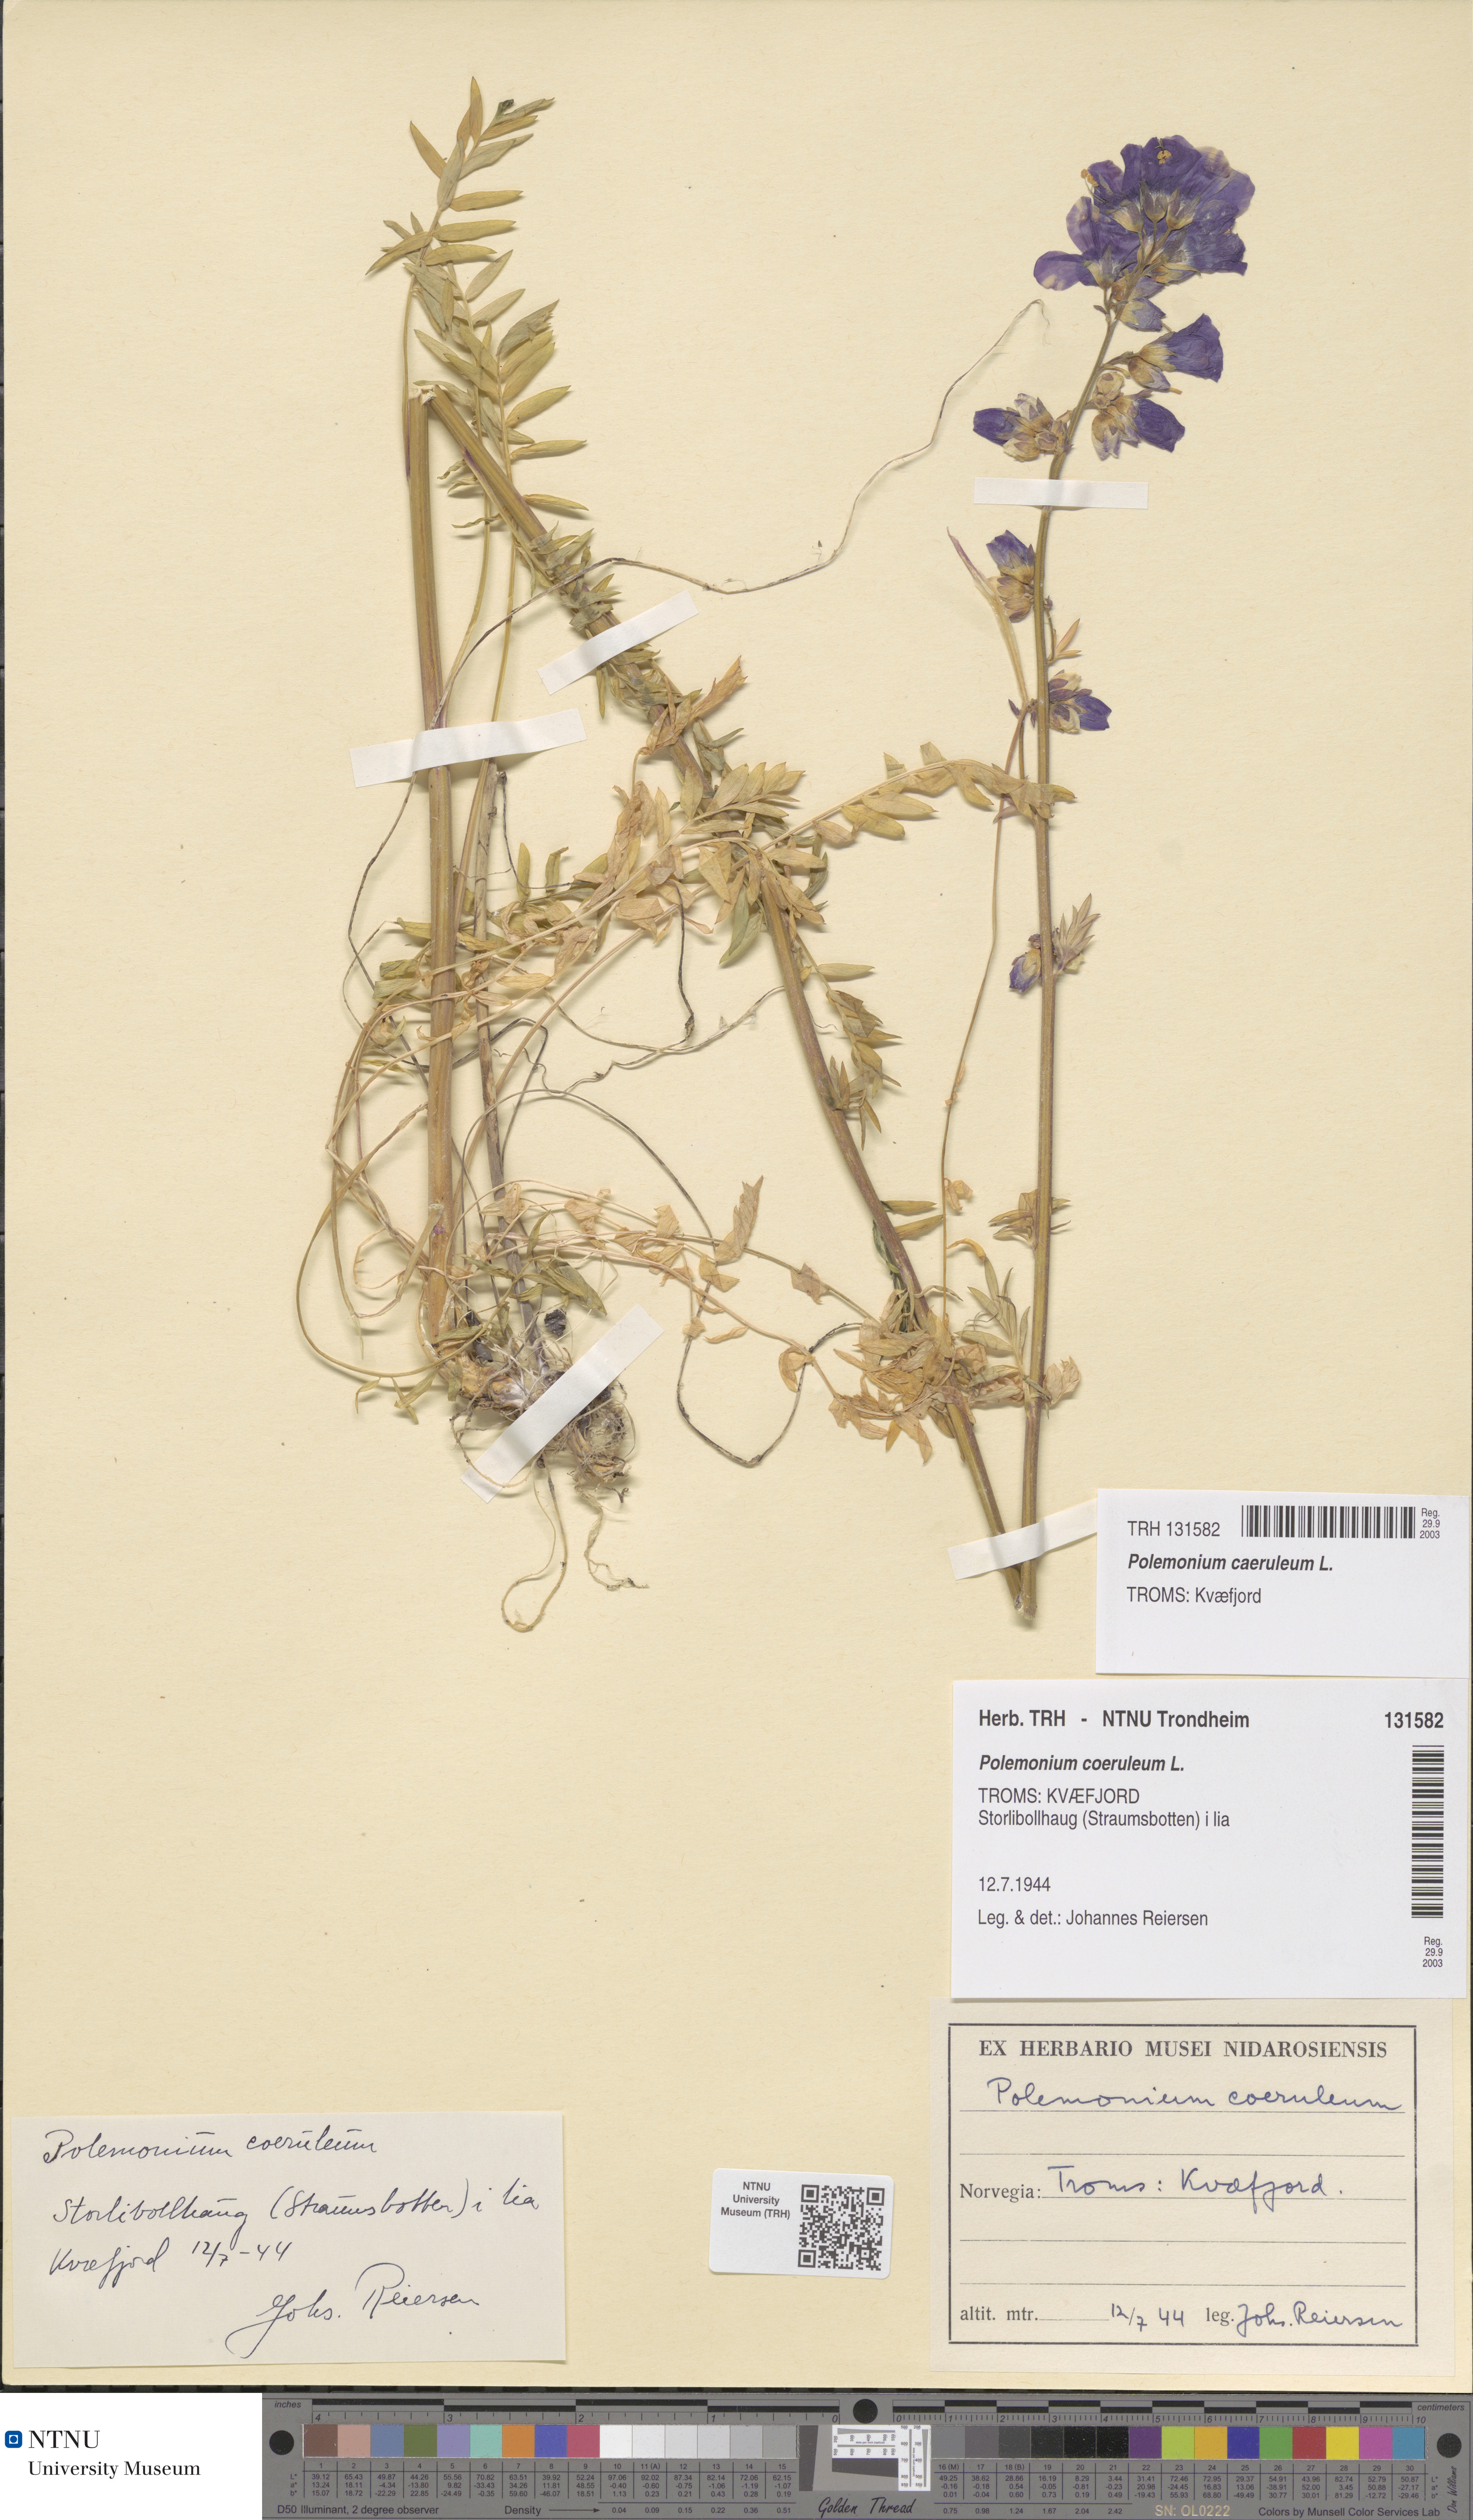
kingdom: Plantae
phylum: Tracheophyta
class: Magnoliopsida
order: Ericales
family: Polemoniaceae
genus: Polemonium
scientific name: Polemonium caeruleum
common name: Jacob's-ladder
